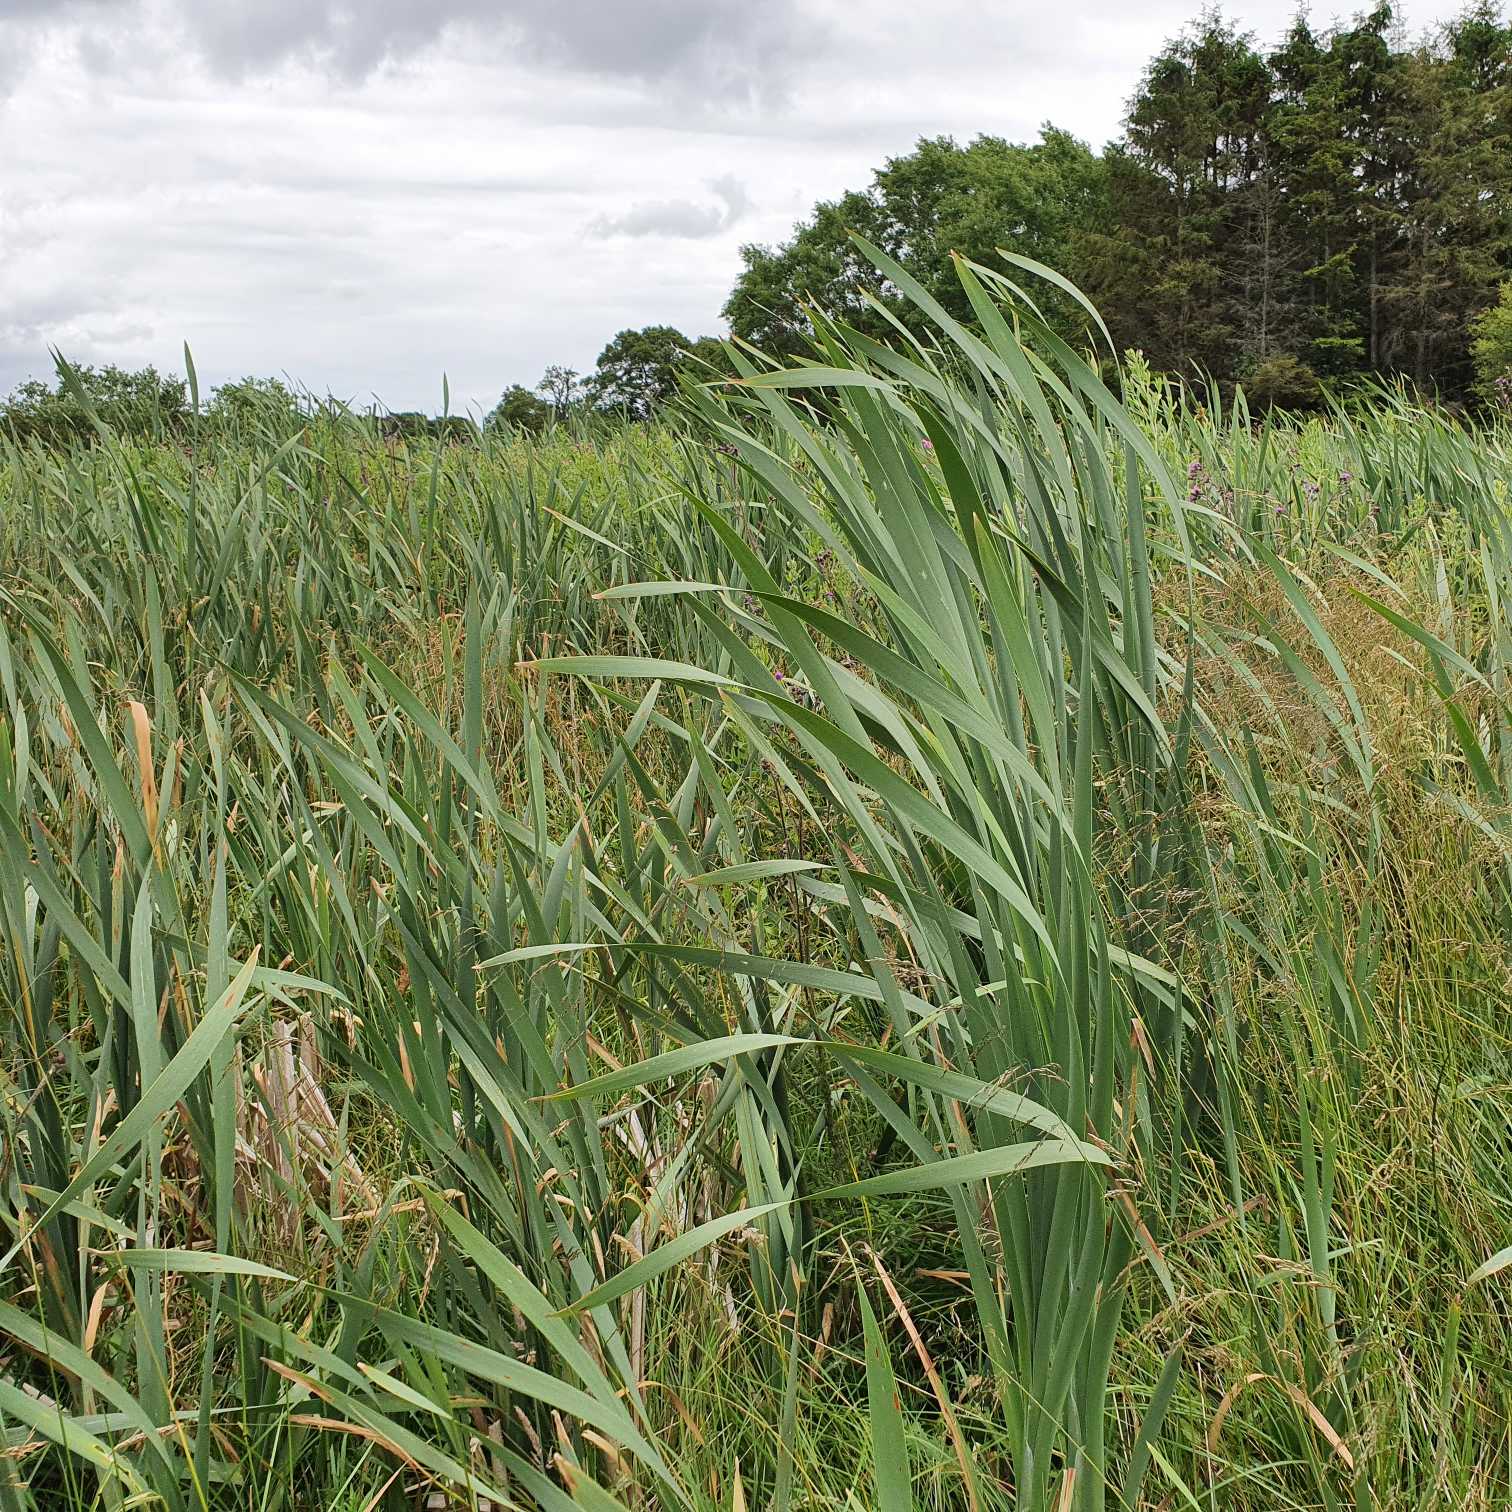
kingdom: Plantae
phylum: Tracheophyta
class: Liliopsida
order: Poales
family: Typhaceae
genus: Typha
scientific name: Typha latifolia
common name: Bredbladet dunhammer
